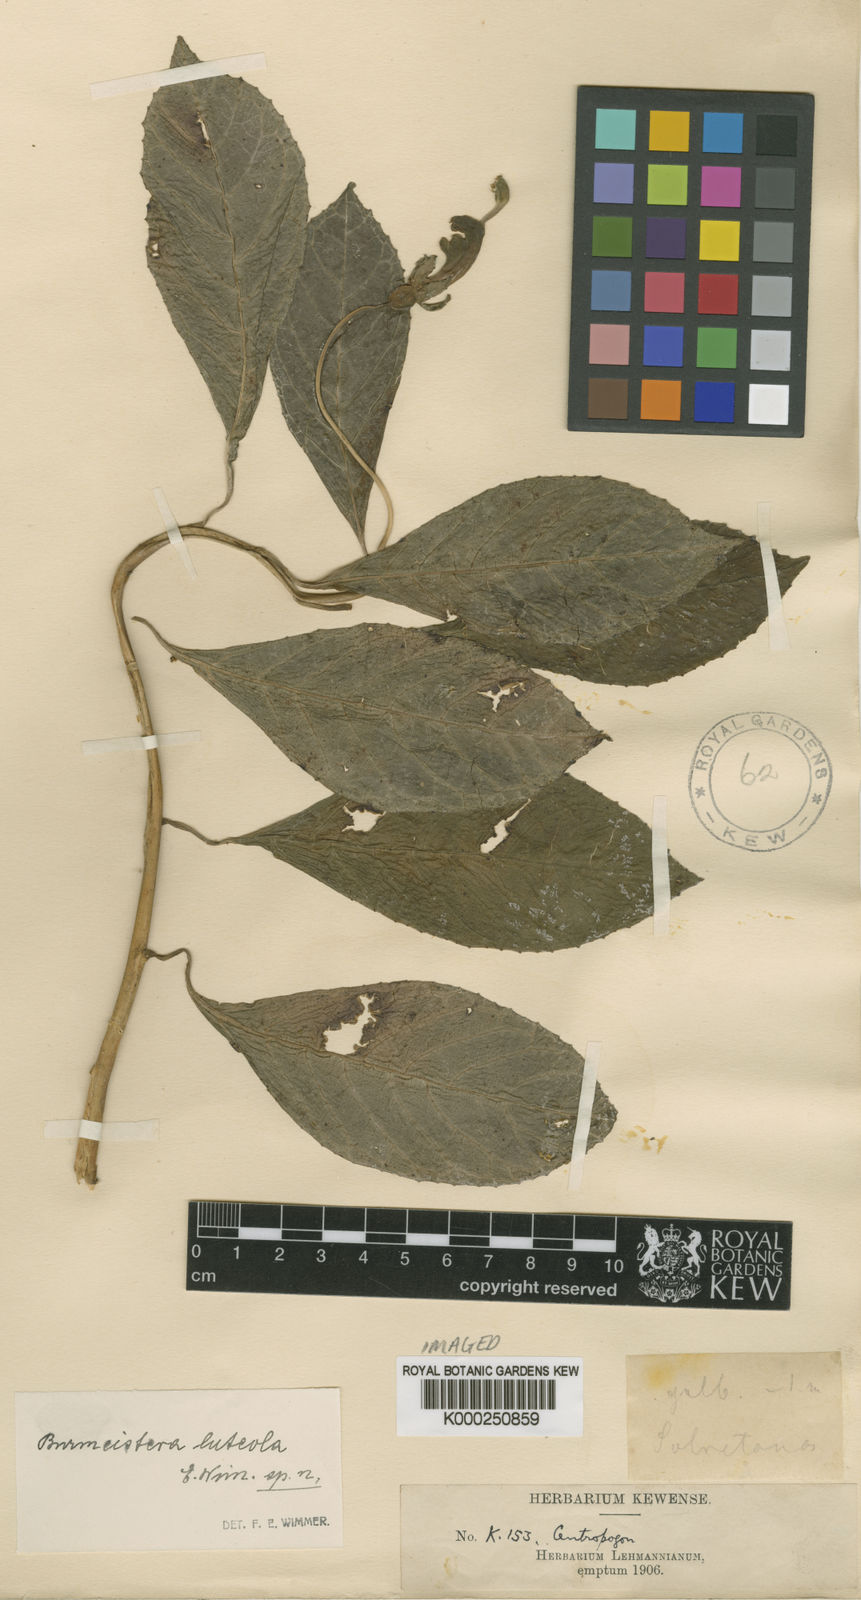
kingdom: Plantae
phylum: Tracheophyta
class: Magnoliopsida
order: Asterales
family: Campanulaceae
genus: Burmeistera
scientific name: Burmeistera connivens
